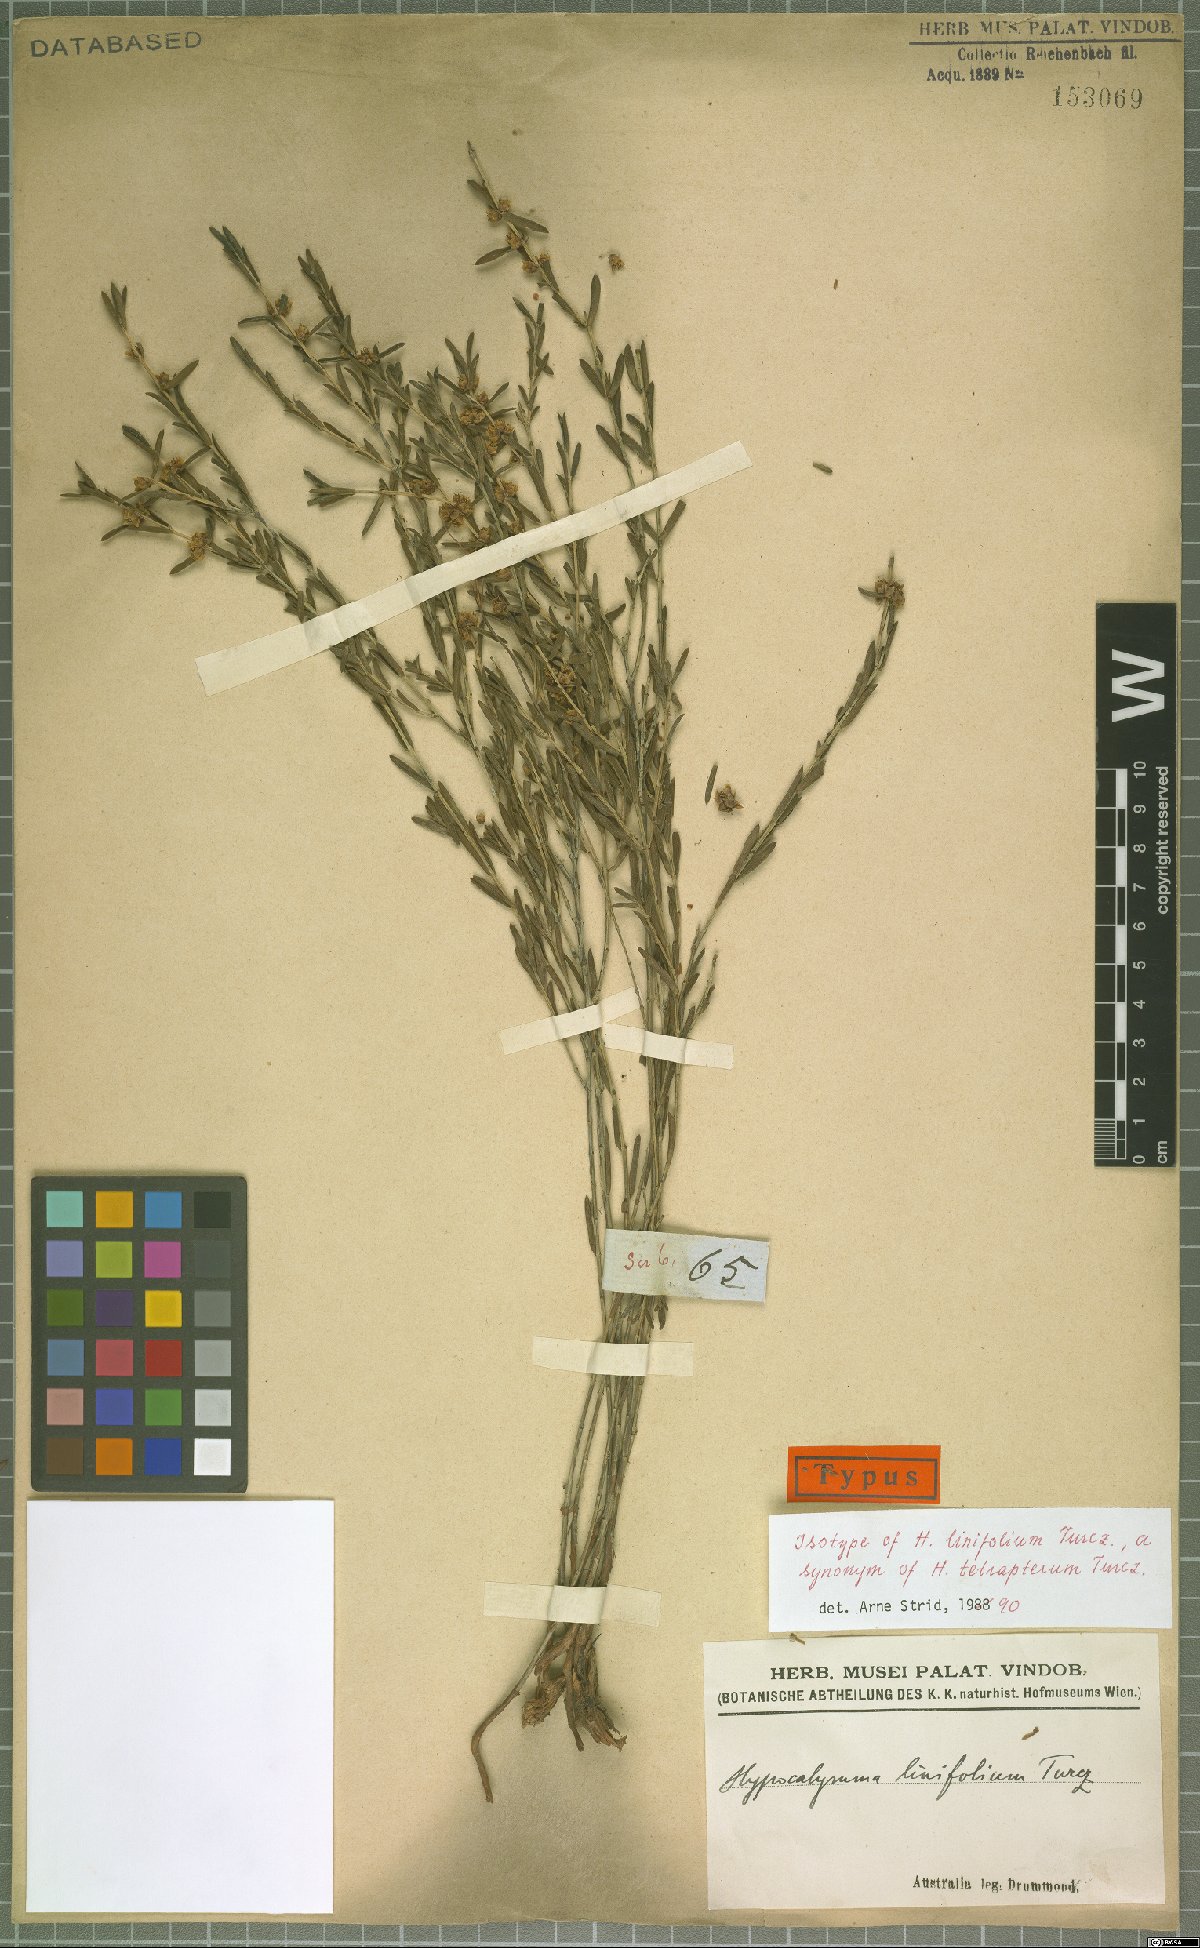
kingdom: Plantae
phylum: Tracheophyta
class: Magnoliopsida
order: Myrtales
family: Myrtaceae
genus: Hypocalymma
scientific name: Hypocalymma tetrapterum
